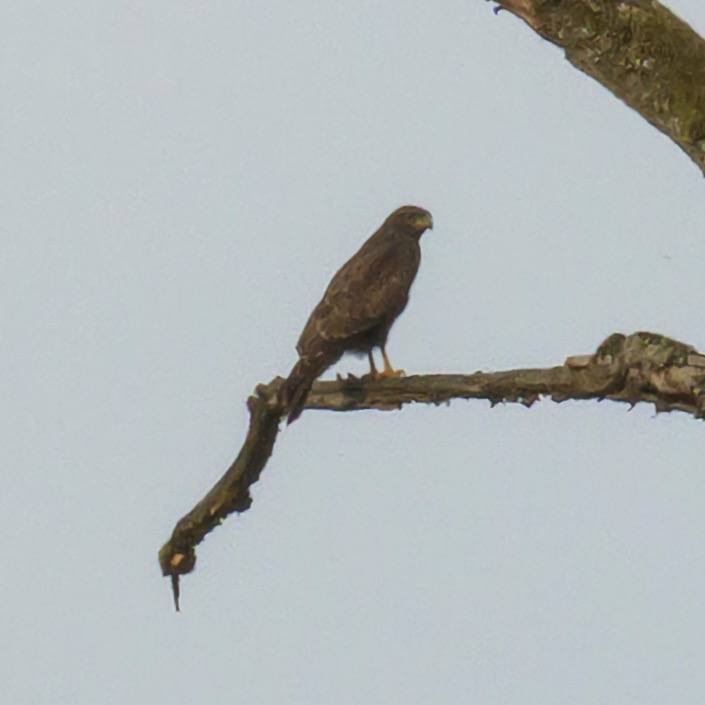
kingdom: Animalia
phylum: Chordata
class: Aves
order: Accipitriformes
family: Accipitridae
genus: Buteo
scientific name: Buteo buteo
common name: Musvåge
